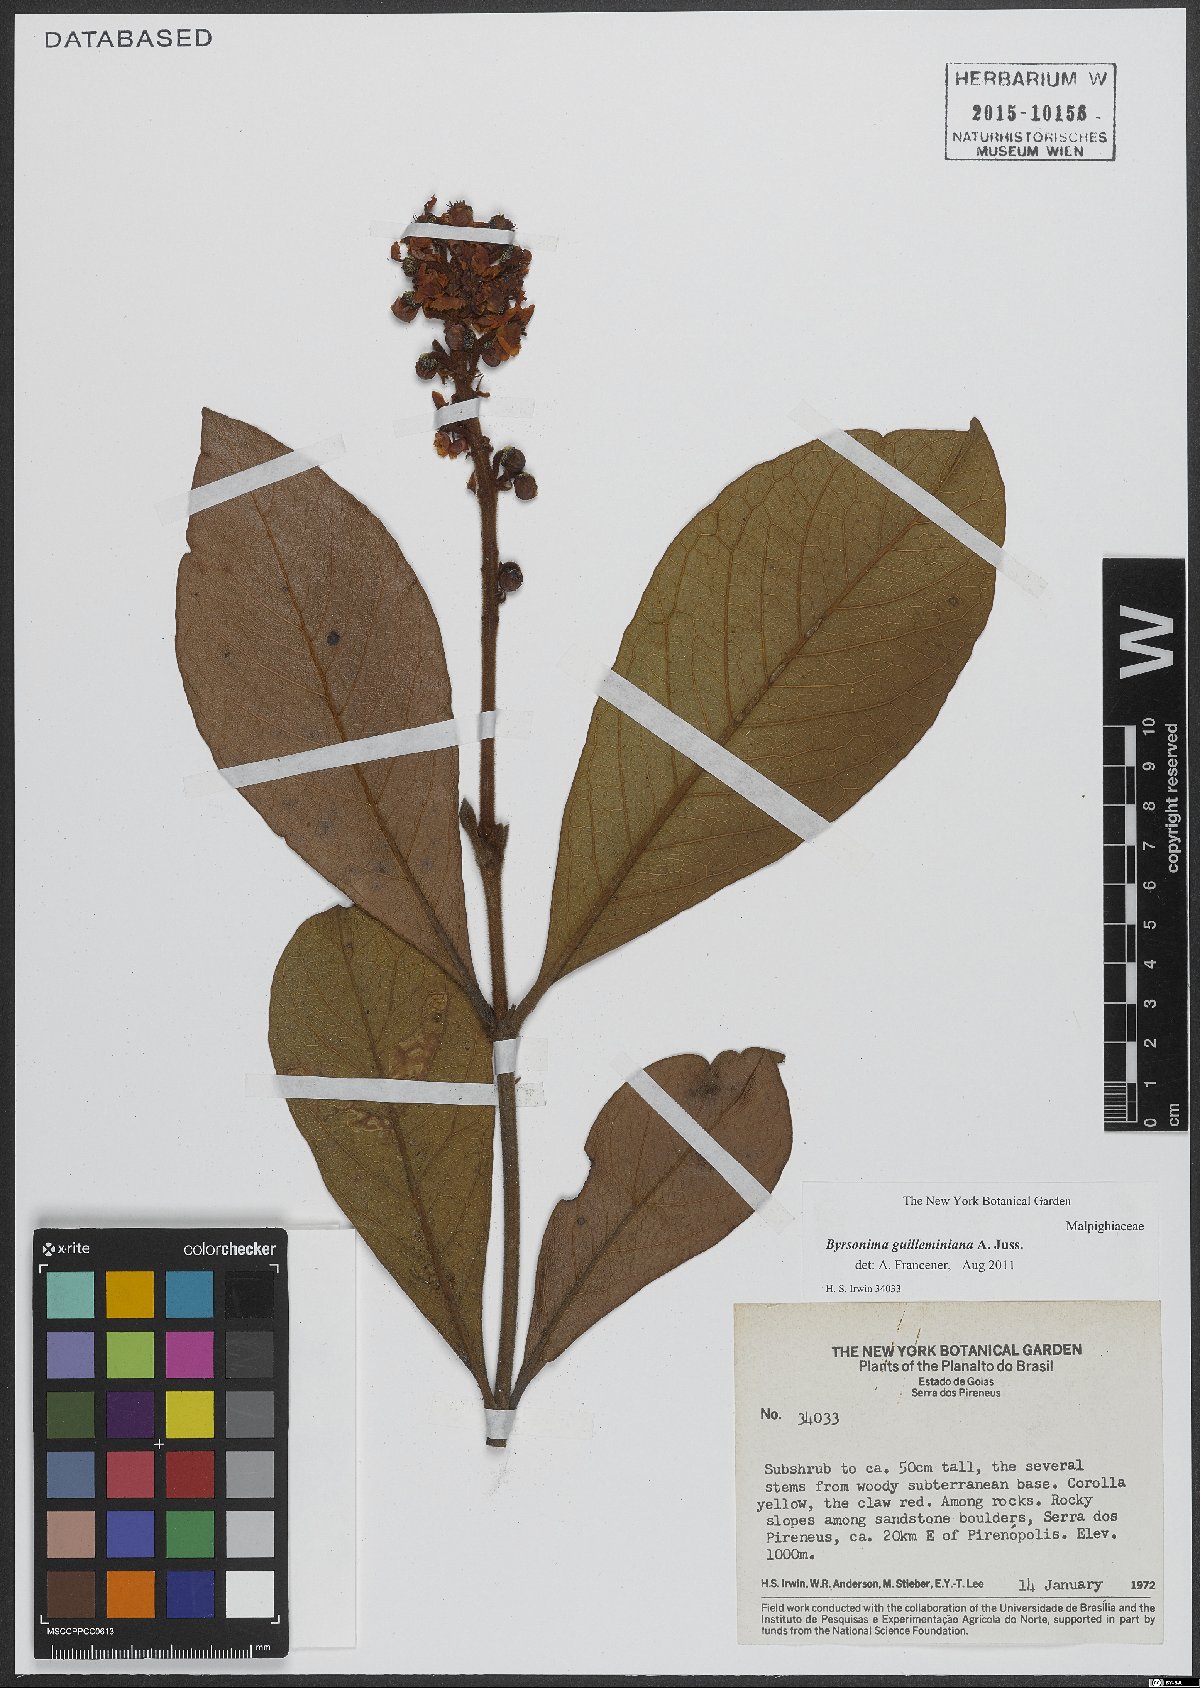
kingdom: Plantae
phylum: Tracheophyta
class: Magnoliopsida
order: Malpighiales
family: Malpighiaceae
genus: Byrsonima
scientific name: Byrsonima guilleminiana
